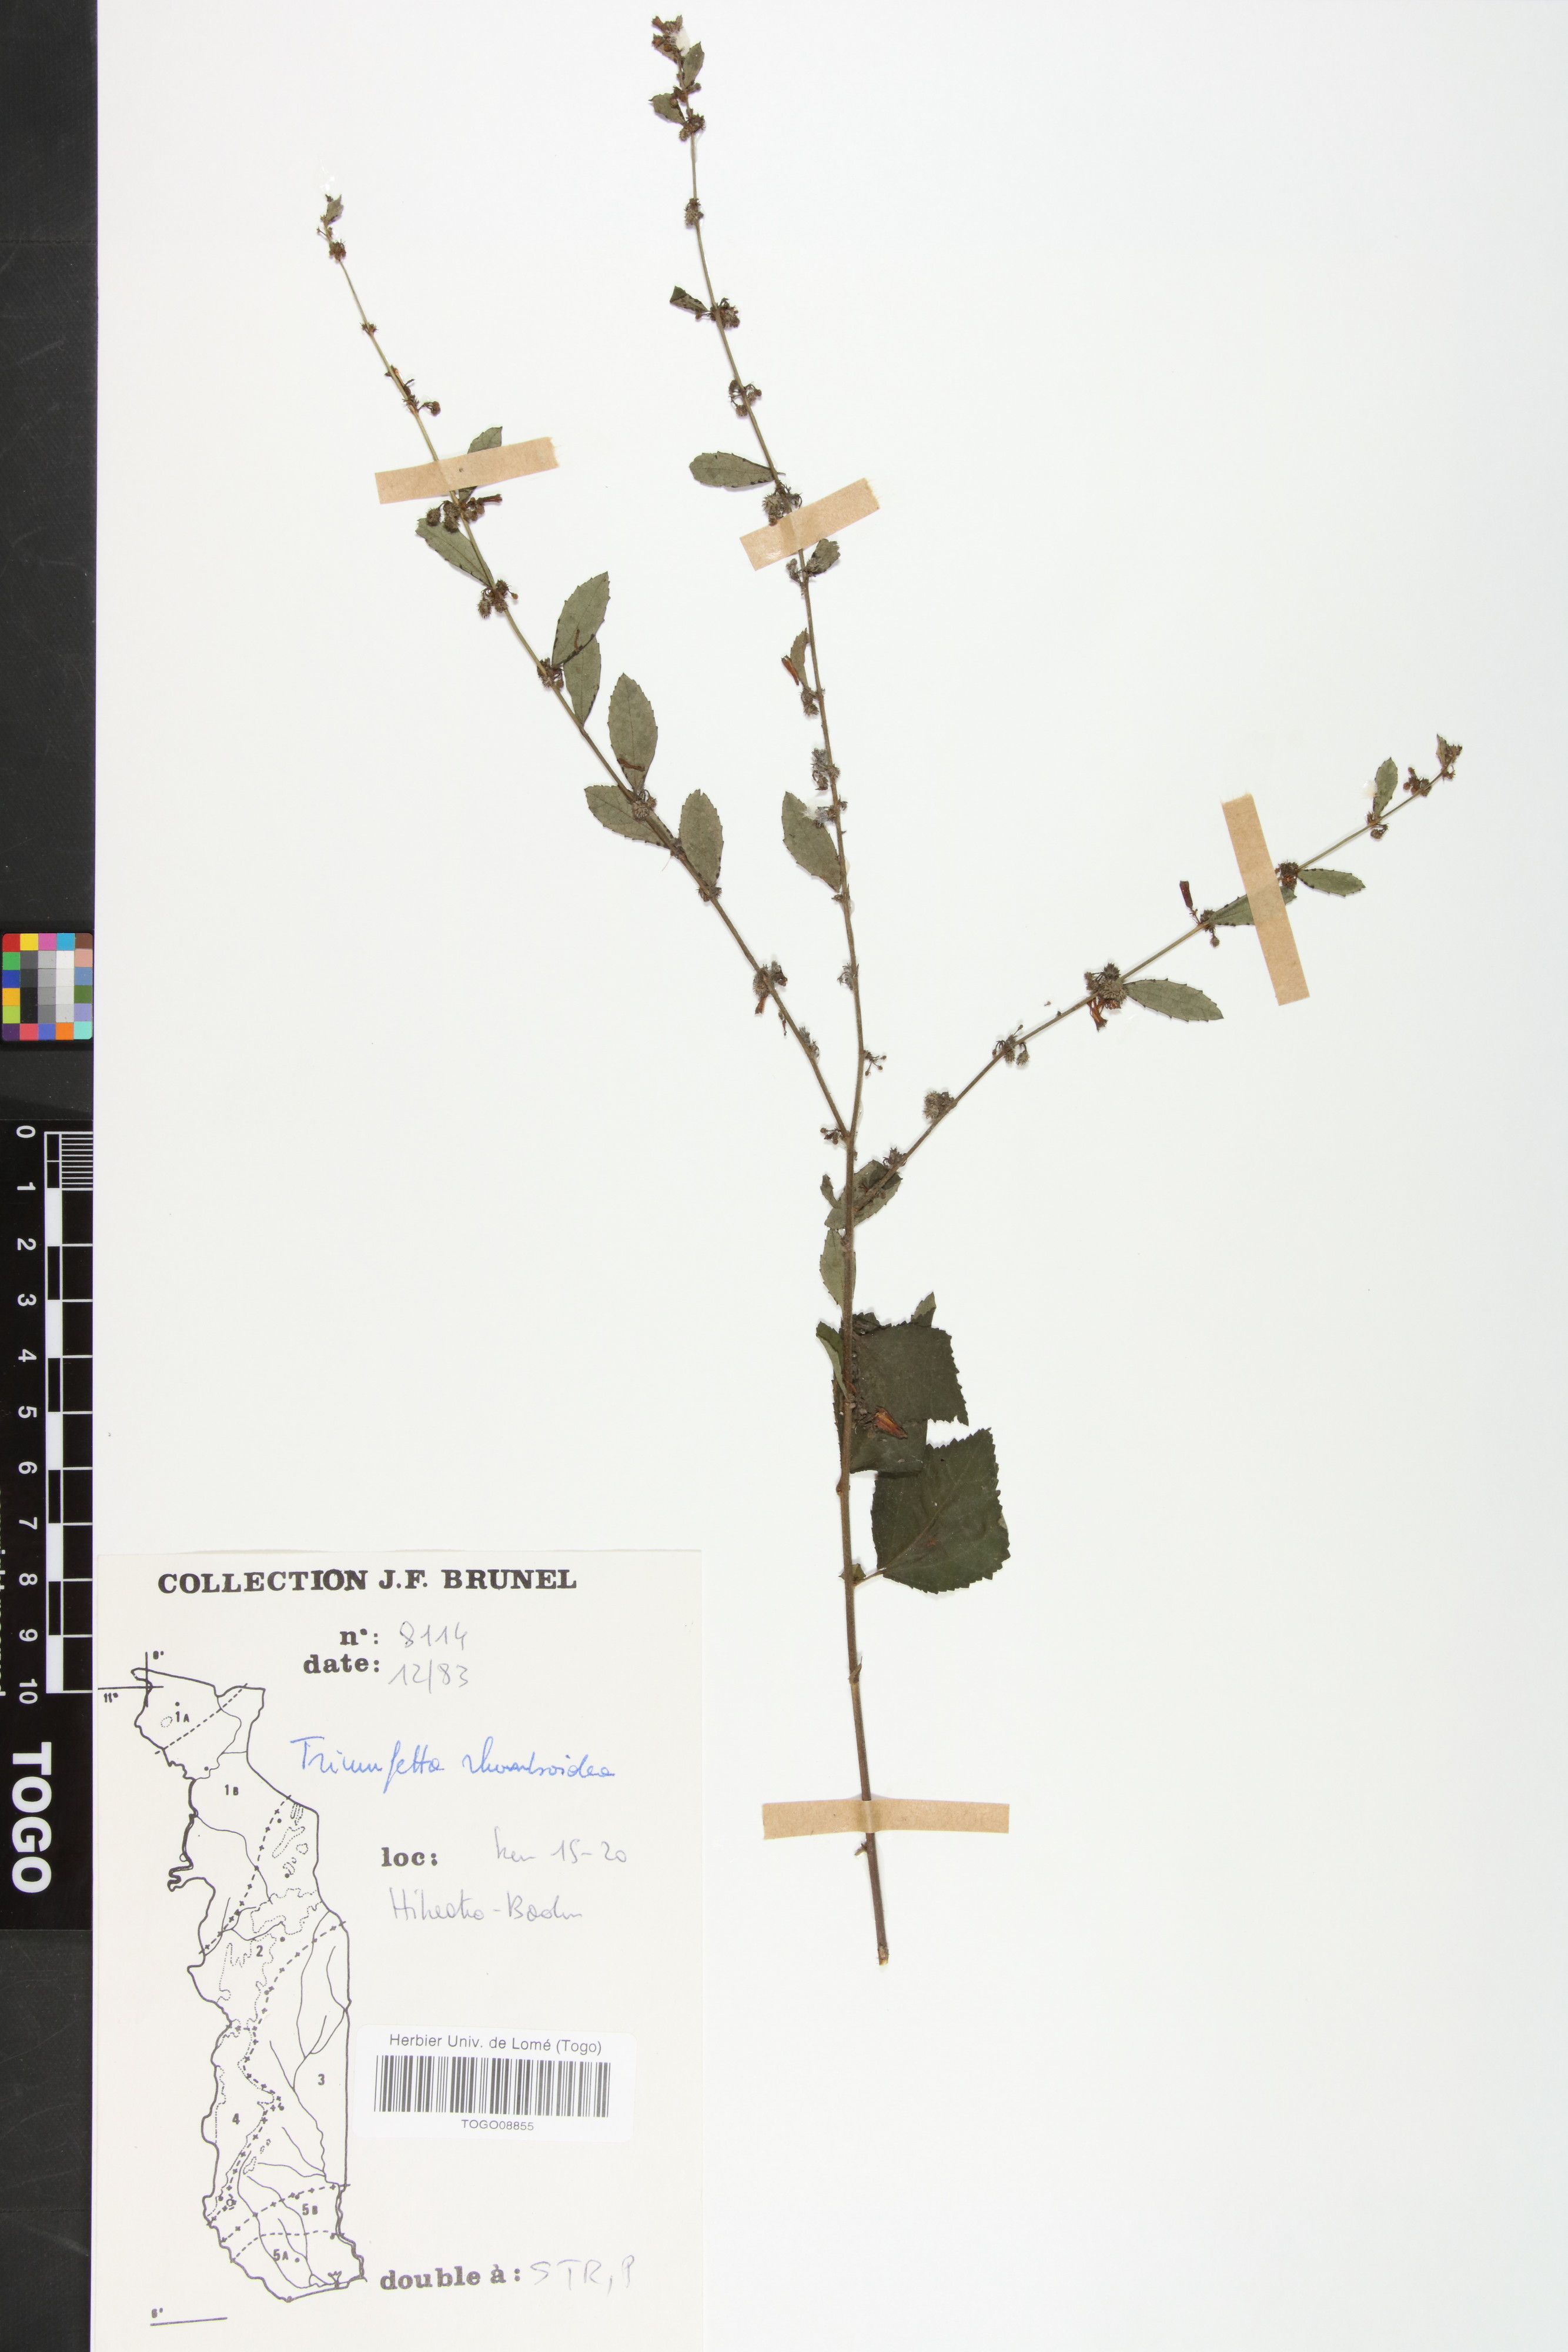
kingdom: Plantae
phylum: Tracheophyta
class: Magnoliopsida
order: Malvales
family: Malvaceae
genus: Triumfetta
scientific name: Triumfetta rhomboidea
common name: Diamond burbark
